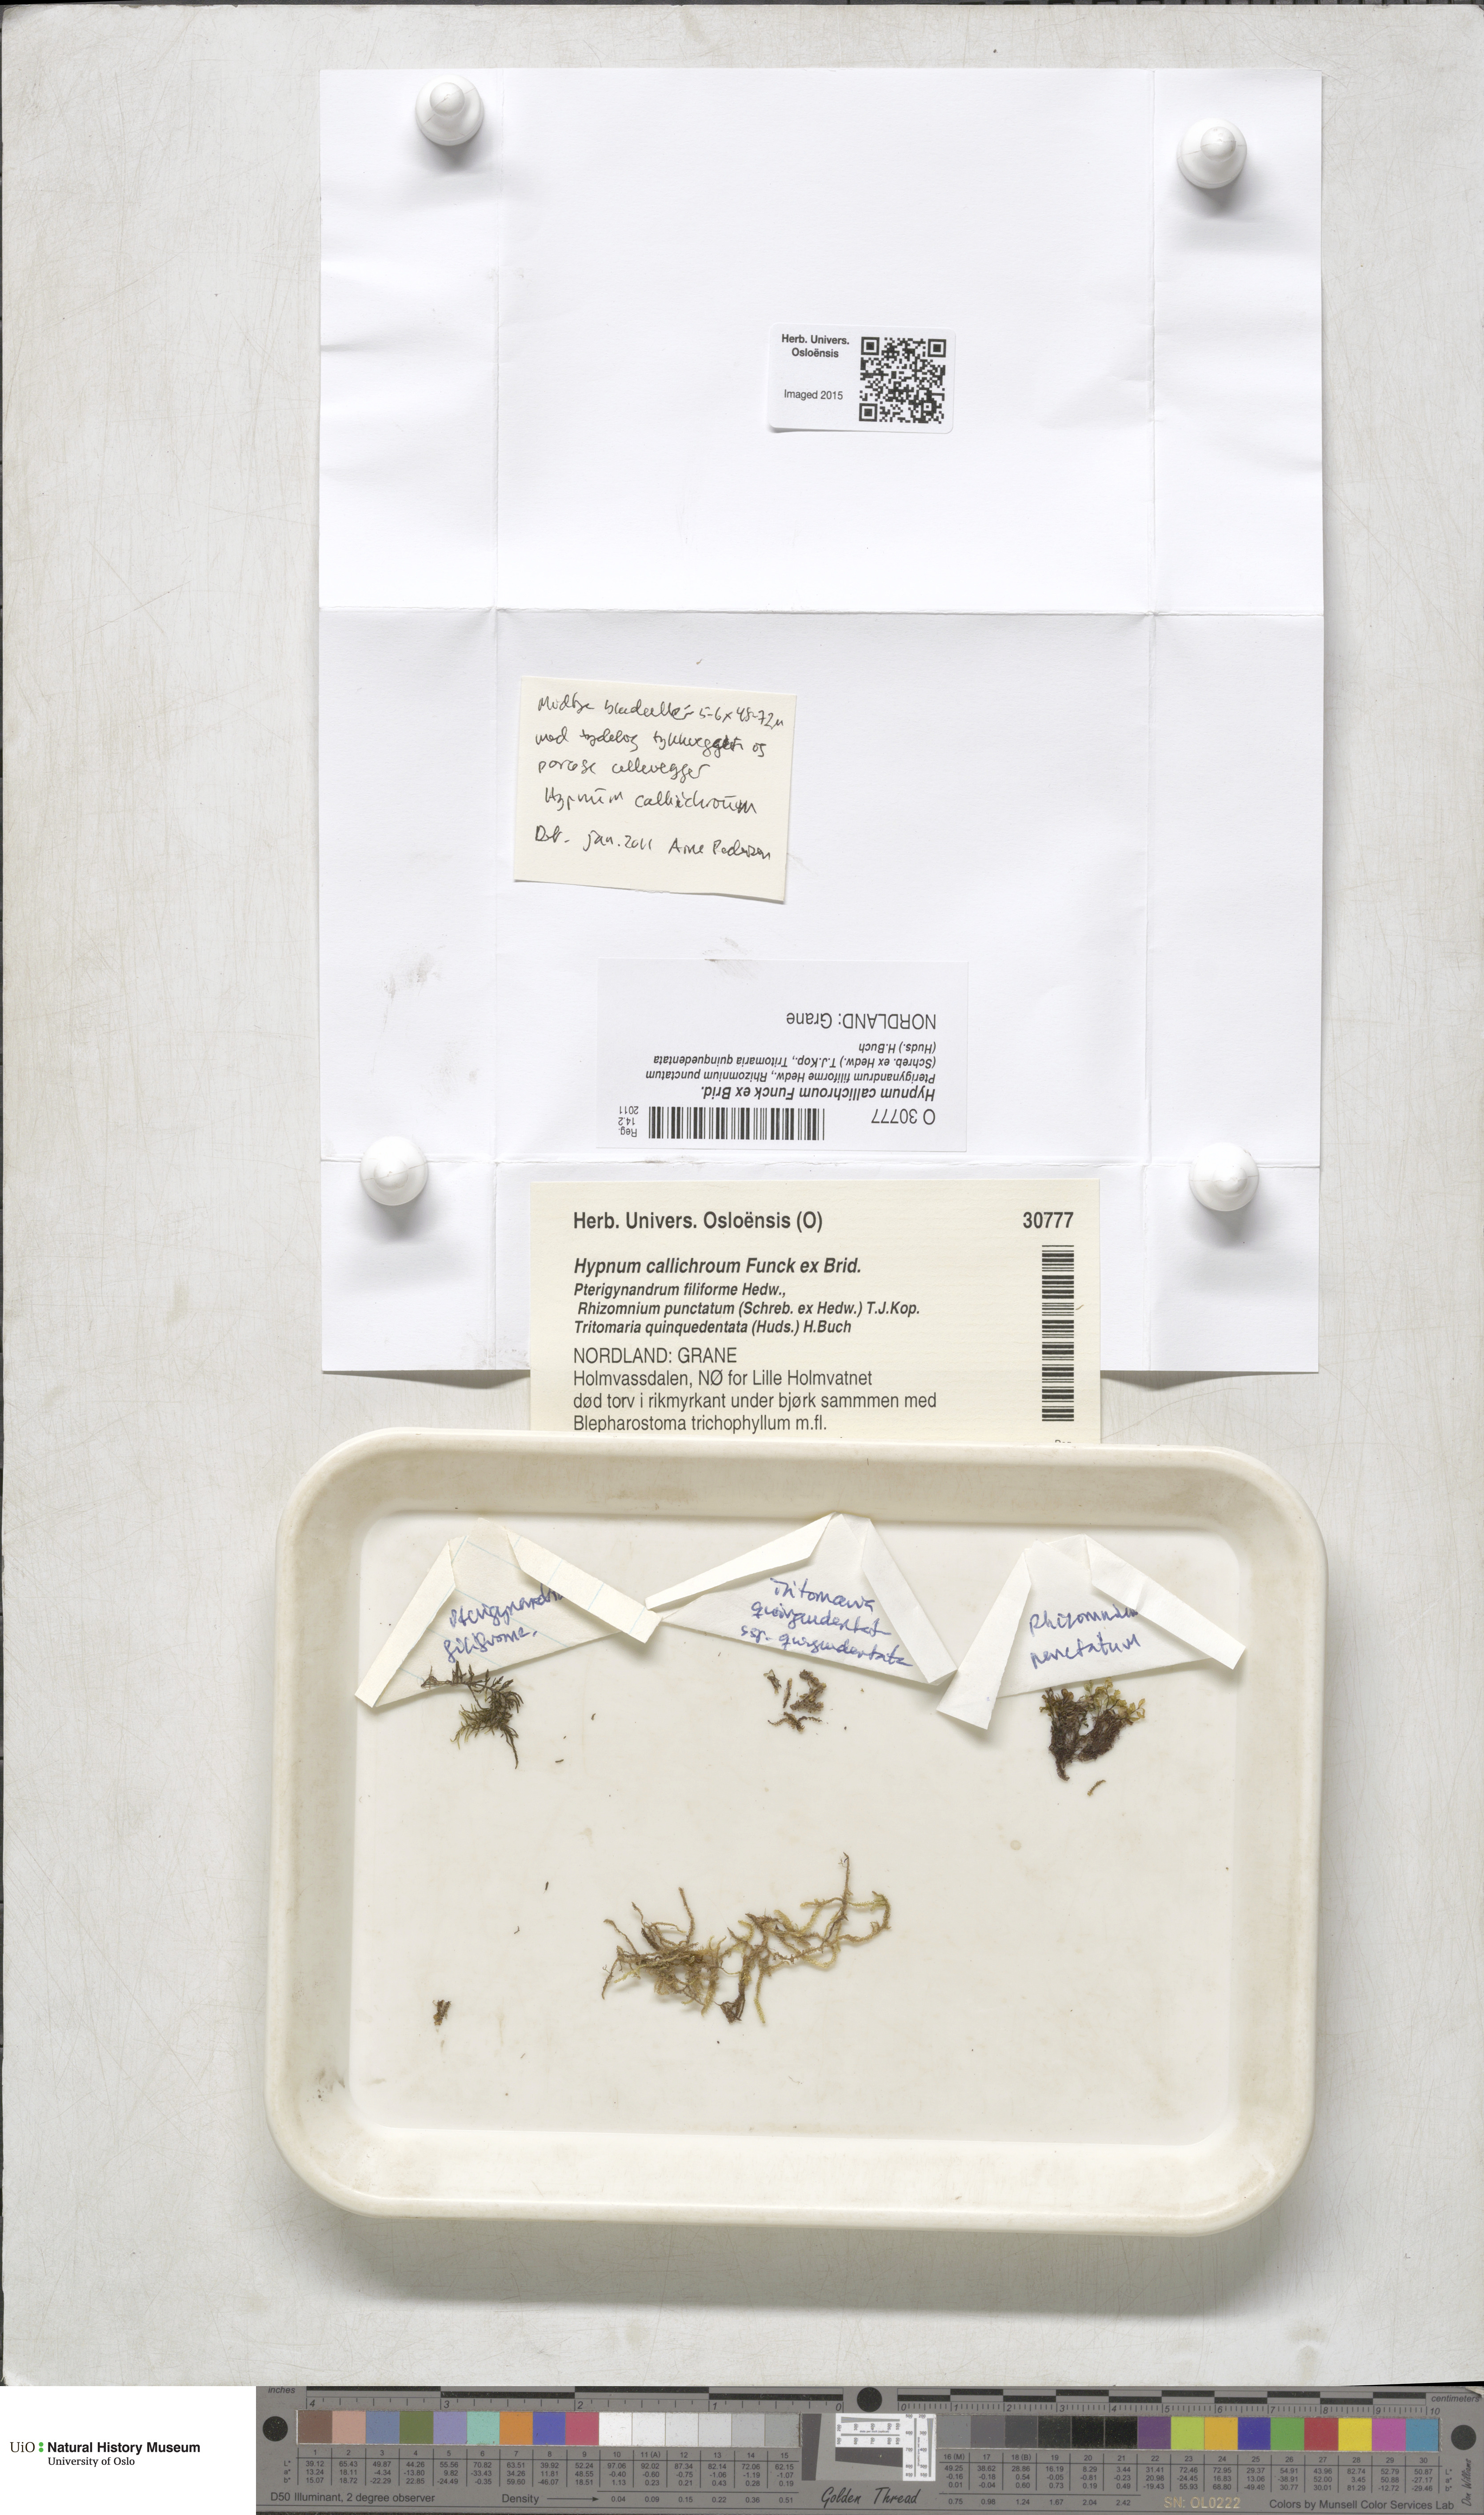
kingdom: Plantae
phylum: Bryophyta
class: Bryopsida
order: Hypnales
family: Stereodontaceae
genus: Stereodon
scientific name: Stereodon callichrous
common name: Downy plait-moss
